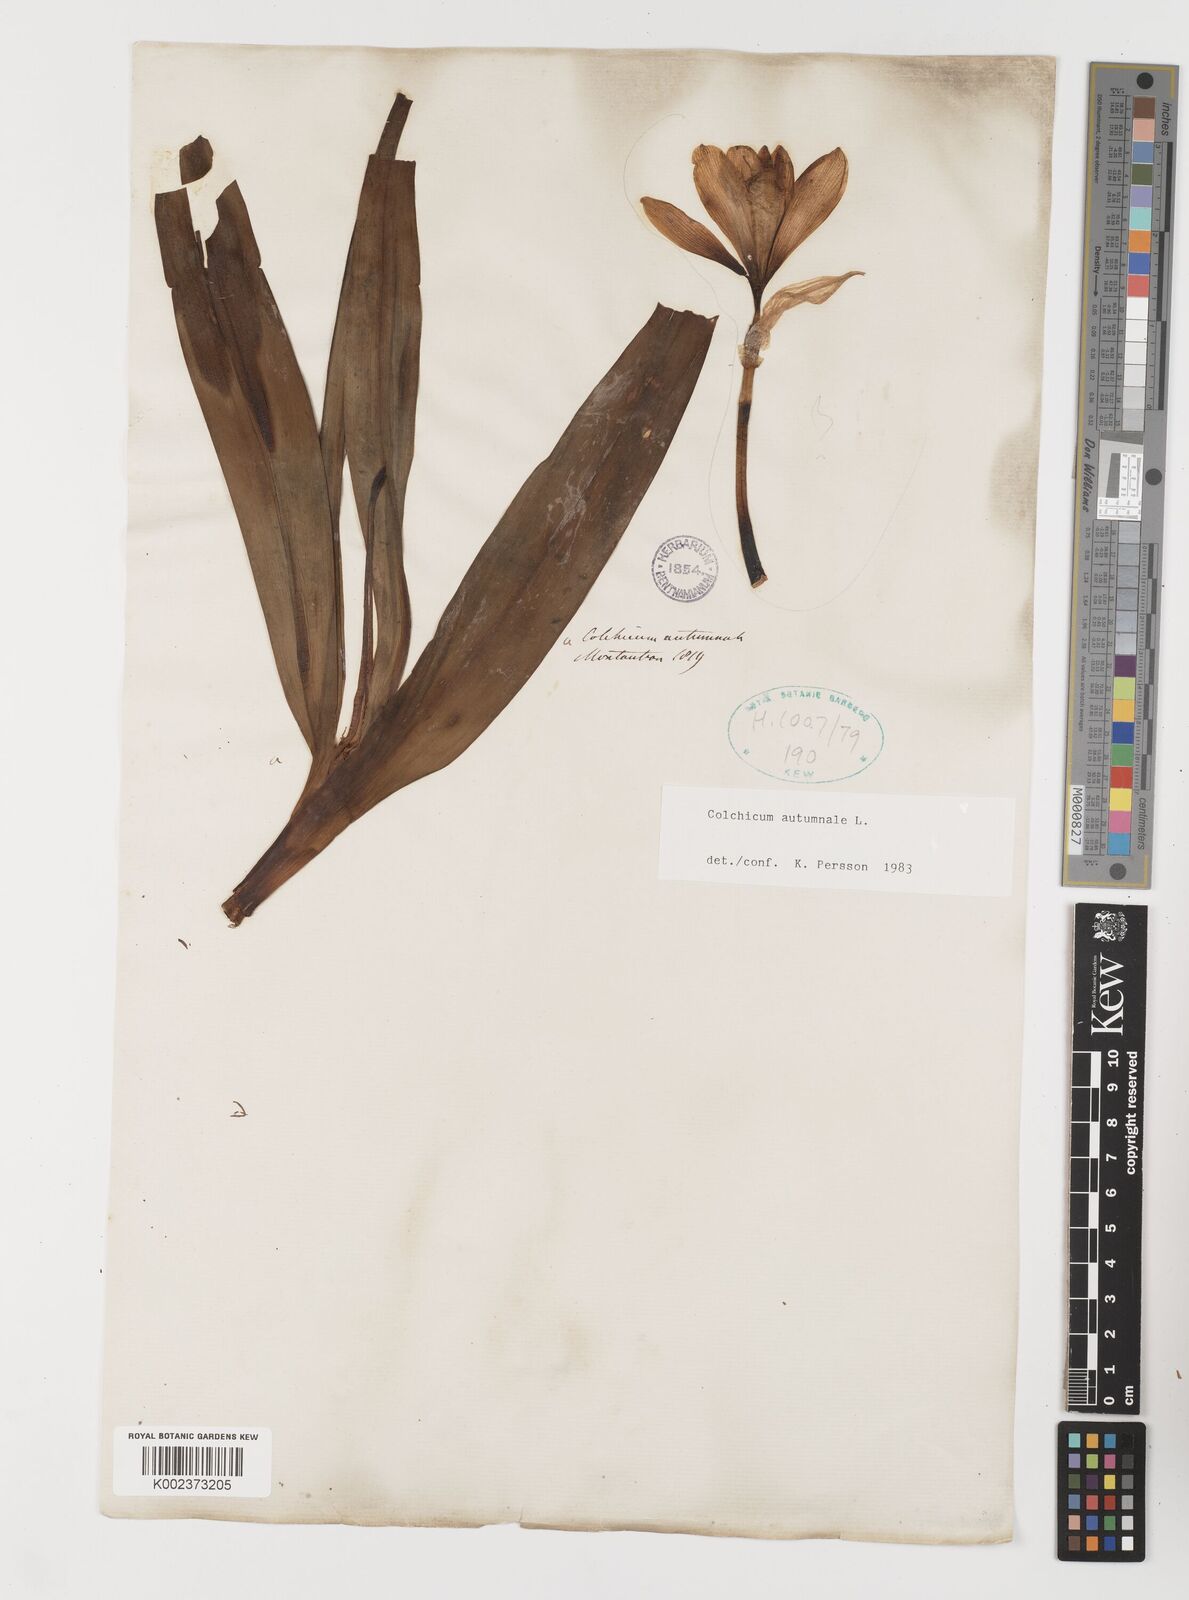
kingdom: Plantae
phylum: Tracheophyta
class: Liliopsida
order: Liliales
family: Colchicaceae
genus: Colchicum
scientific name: Colchicum autumnale
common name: Autumn crocus
